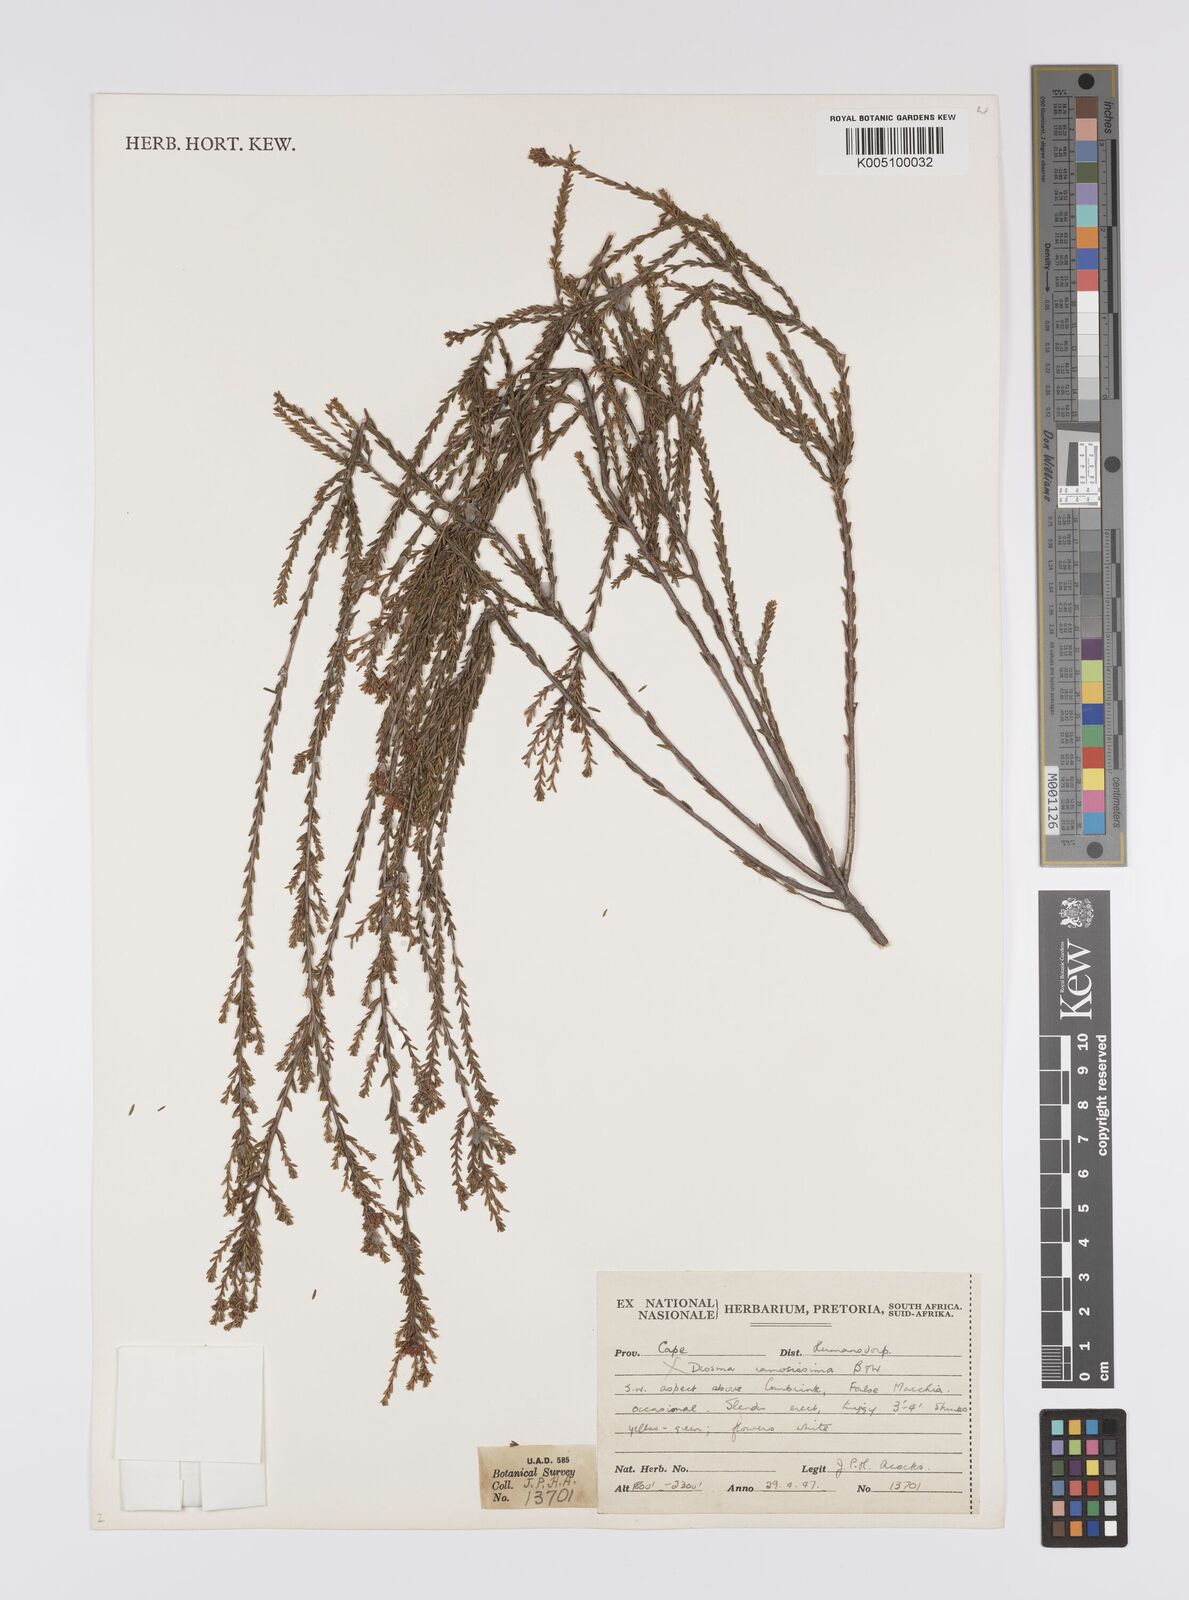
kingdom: Plantae
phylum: Tracheophyta
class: Magnoliopsida
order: Sapindales
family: Rutaceae
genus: Diosma
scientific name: Diosma ramosissima
